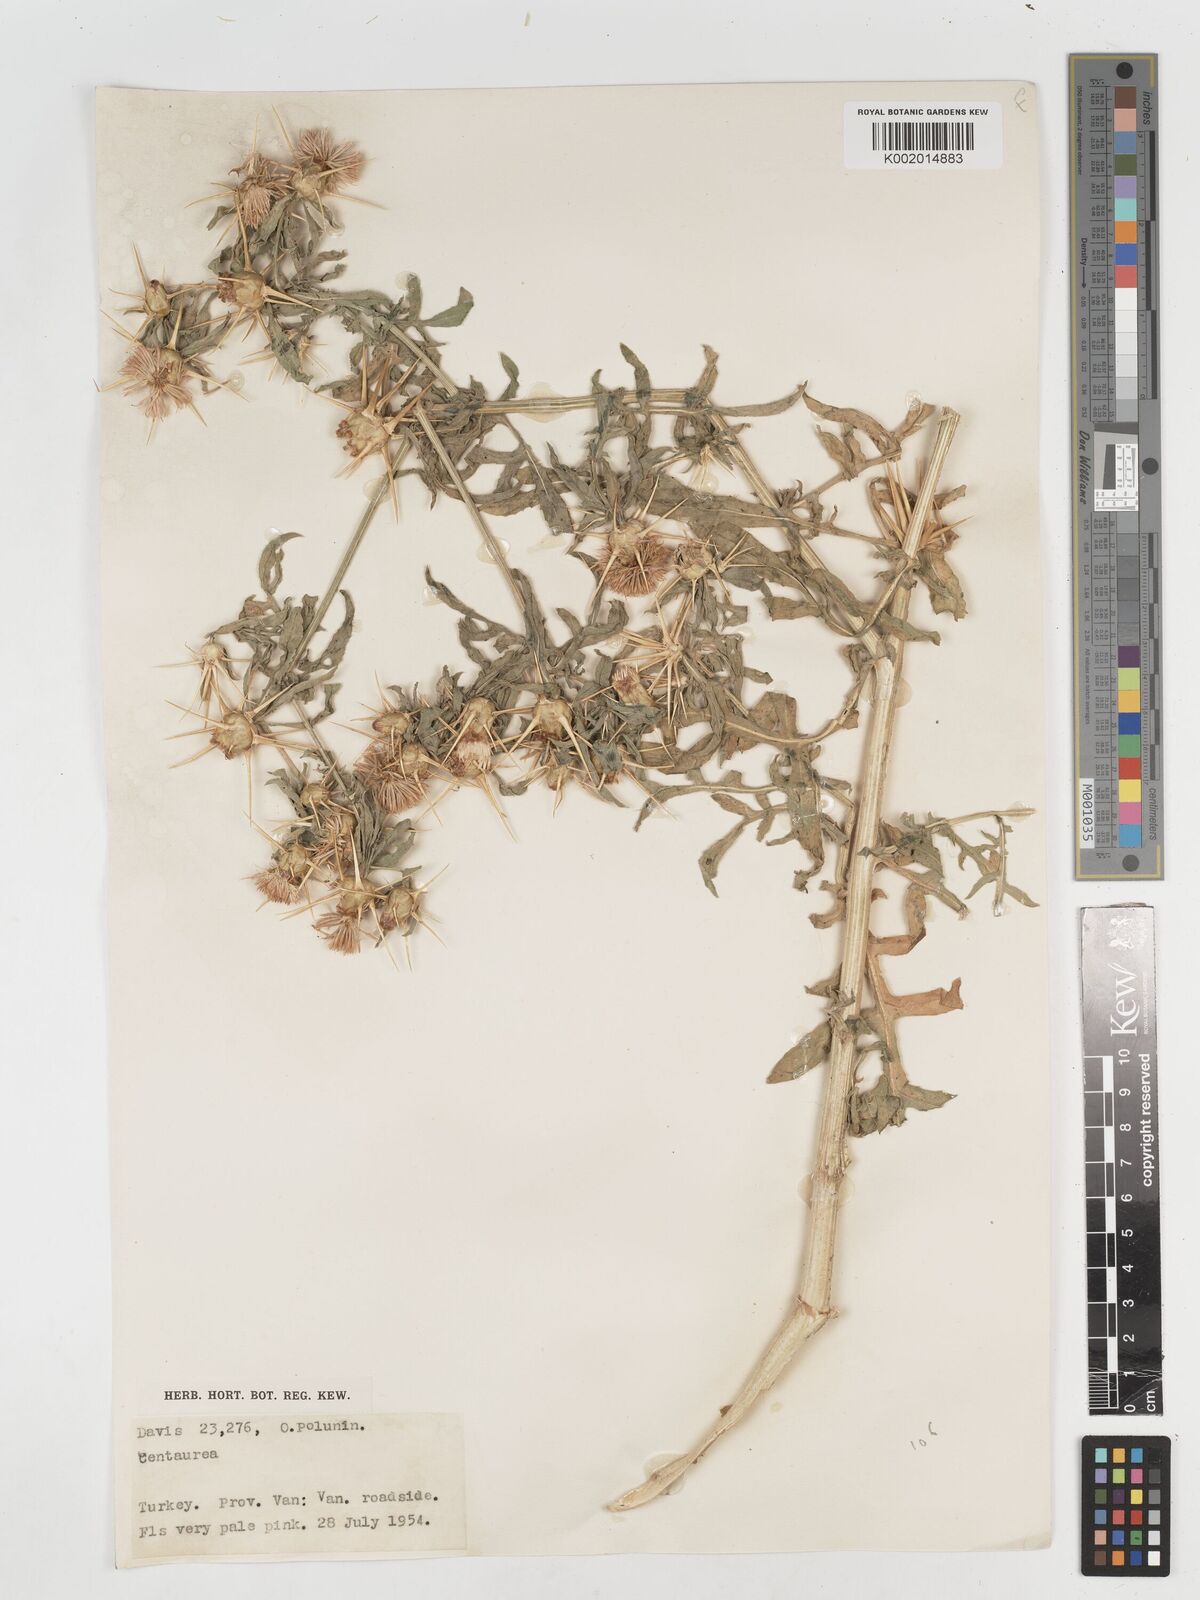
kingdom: Plantae
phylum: Tracheophyta
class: Magnoliopsida
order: Asterales
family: Asteraceae
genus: Centaurea
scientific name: Centaurea iberica
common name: Iberian knapweed
